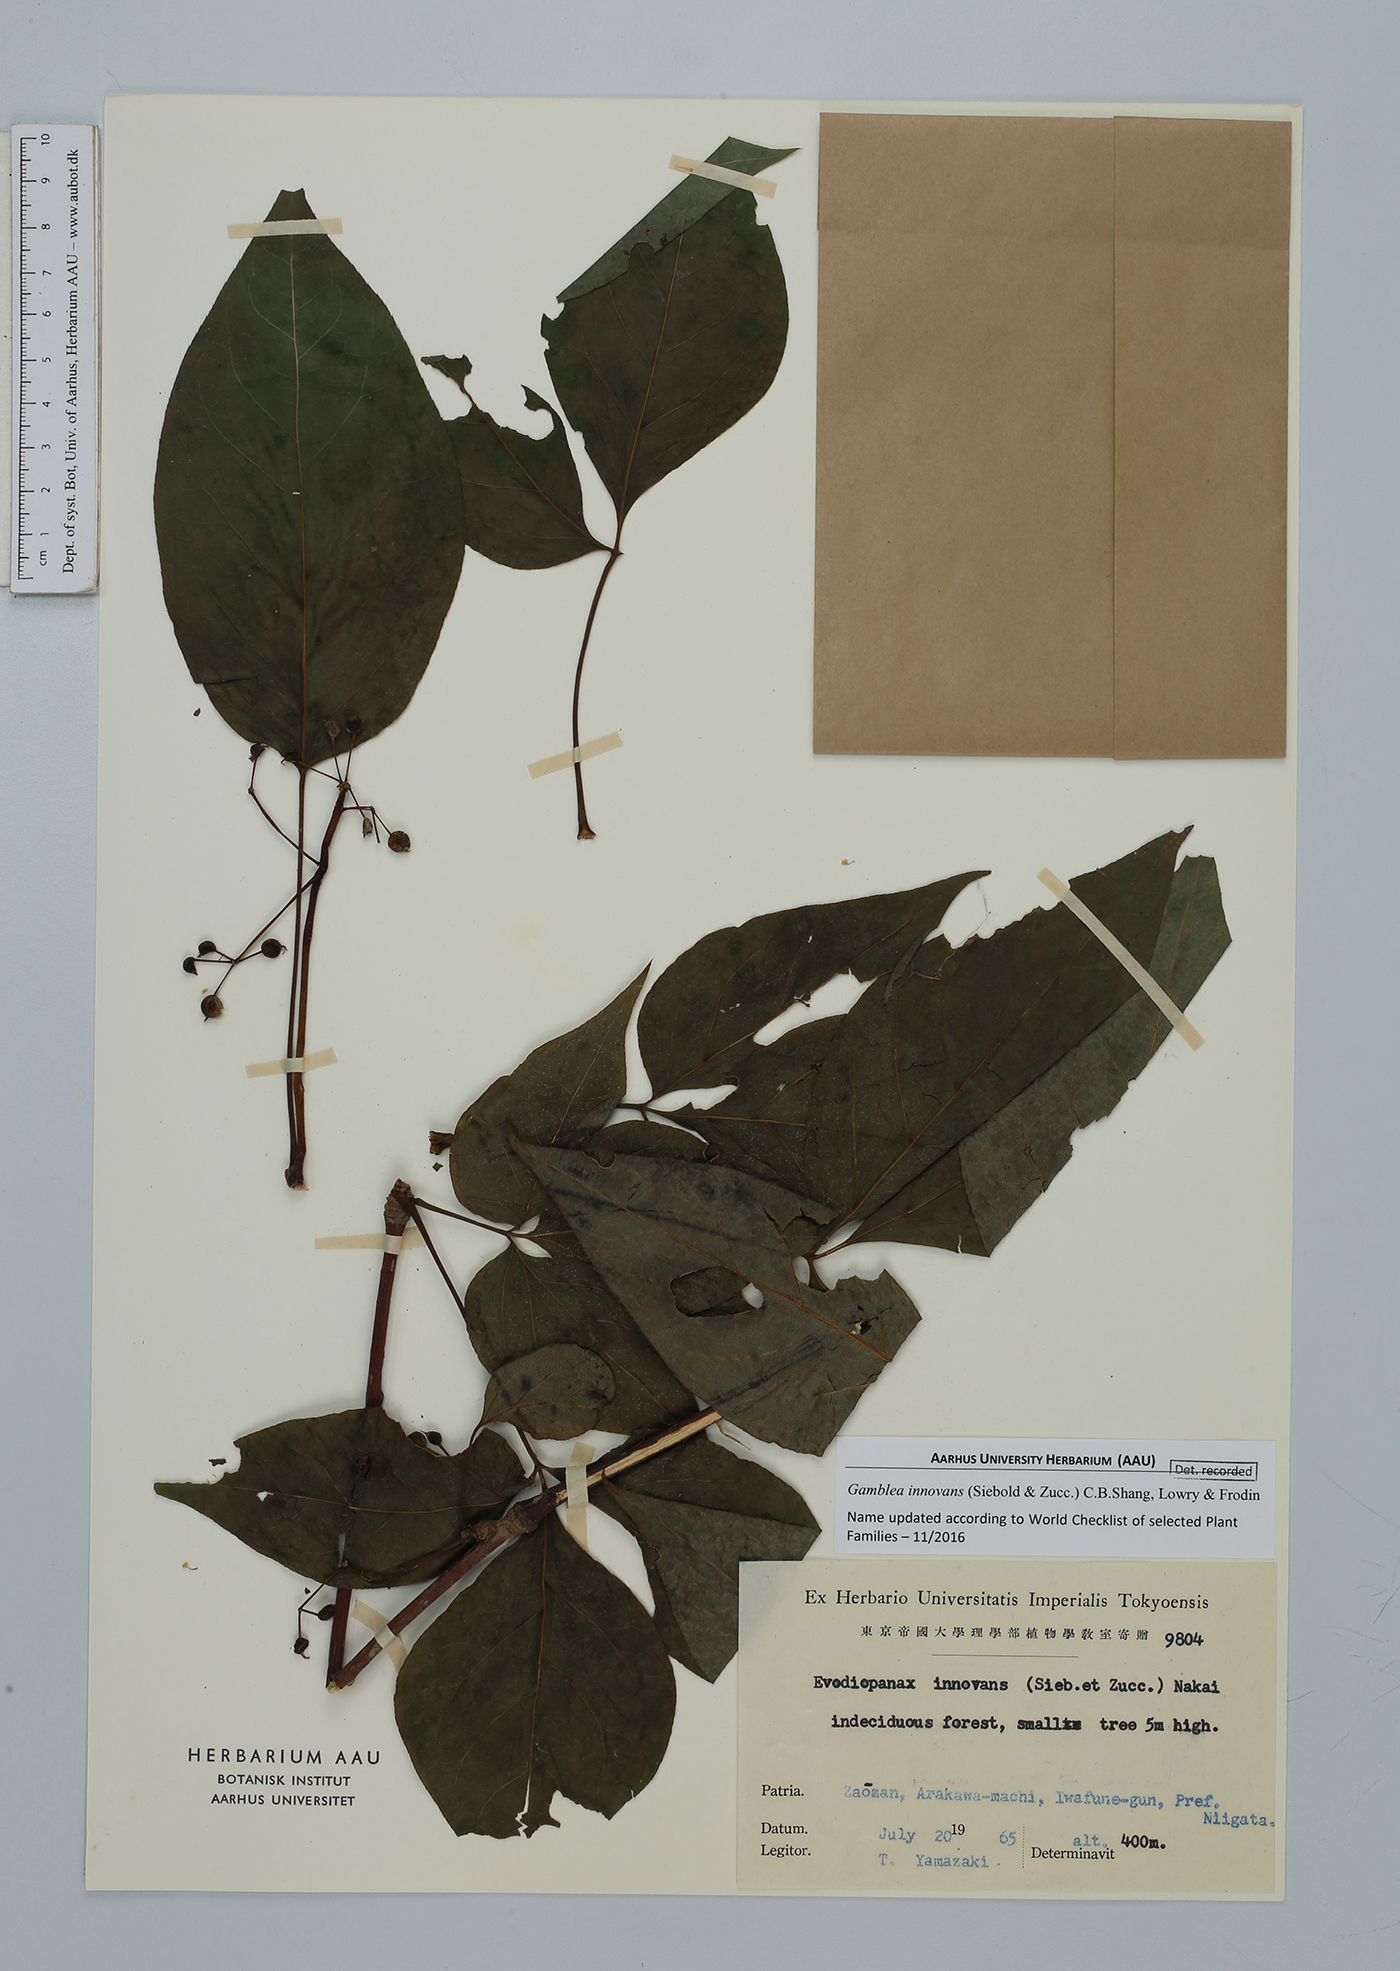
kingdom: Plantae
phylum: Tracheophyta
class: Magnoliopsida
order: Apiales
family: Araliaceae
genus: Gamblea
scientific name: Gamblea innovans
